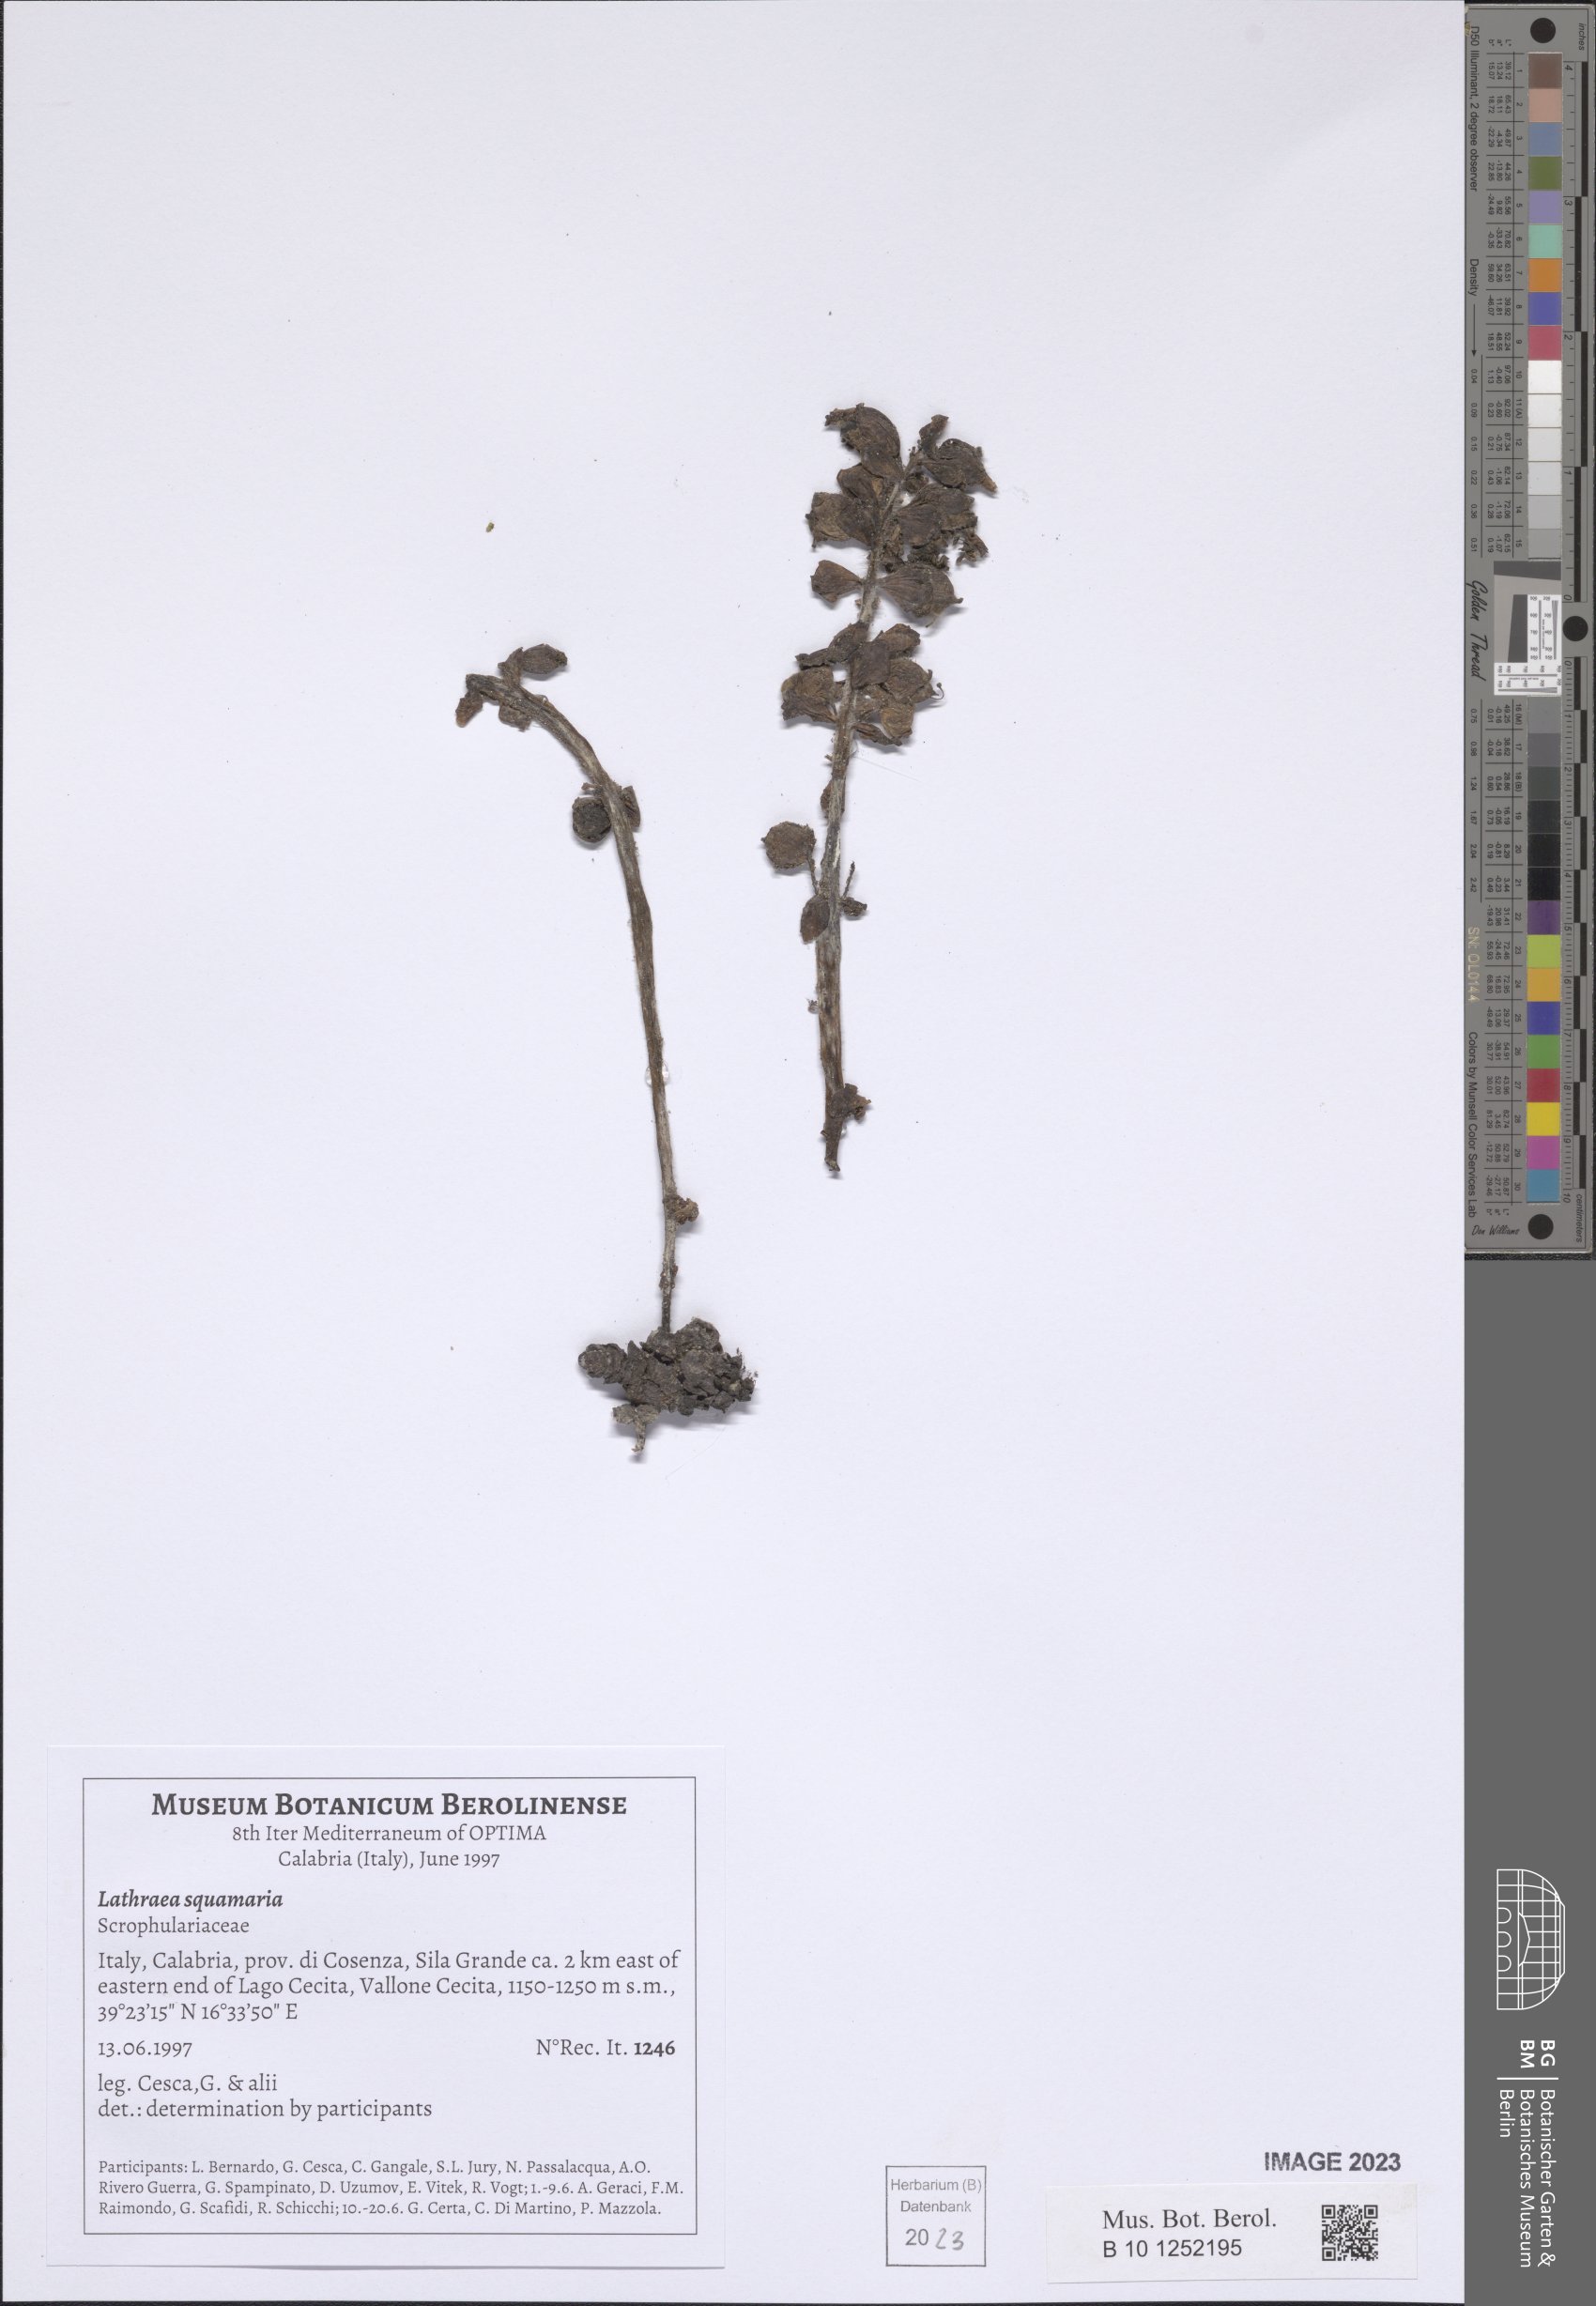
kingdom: Plantae
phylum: Tracheophyta
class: Magnoliopsida
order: Lamiales
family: Orobanchaceae
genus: Lathraea
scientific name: Lathraea squamaria
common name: Toothwort
